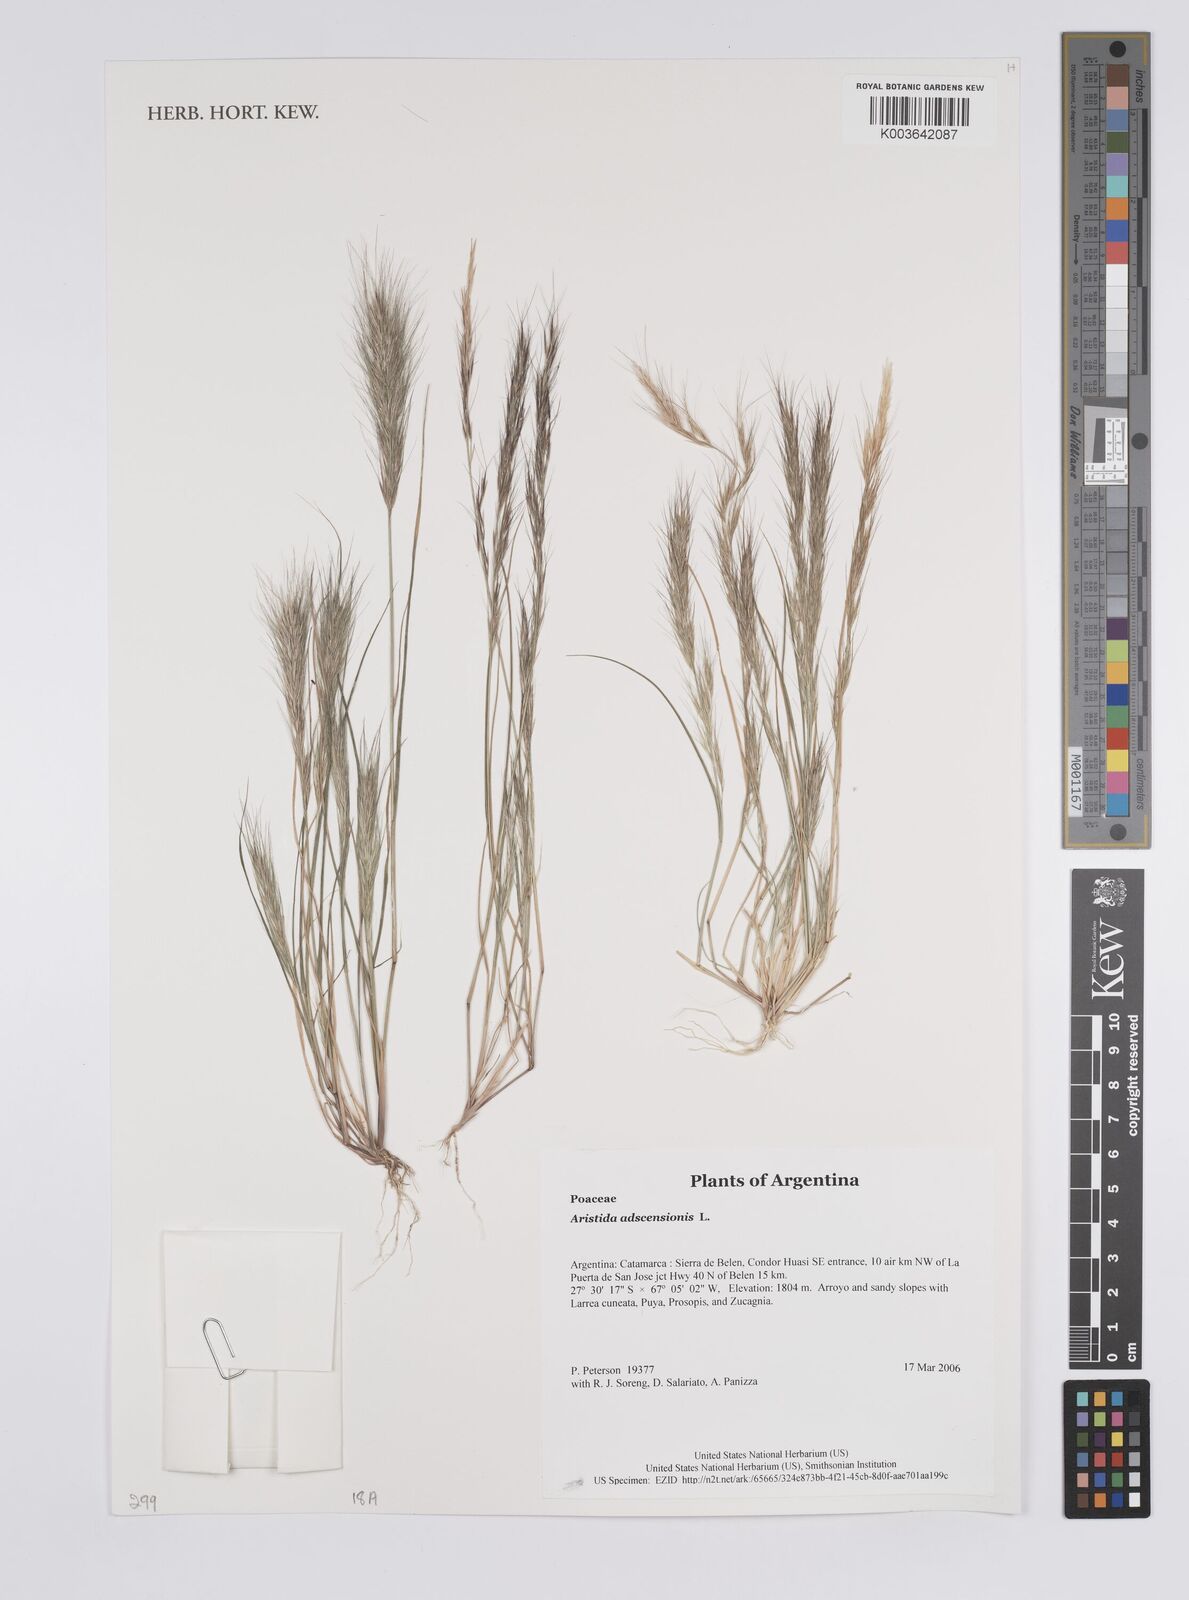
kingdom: Plantae
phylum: Tracheophyta
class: Liliopsida
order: Poales
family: Poaceae
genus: Aristida
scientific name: Aristida adscensionis
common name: Sixweeks threeawn
